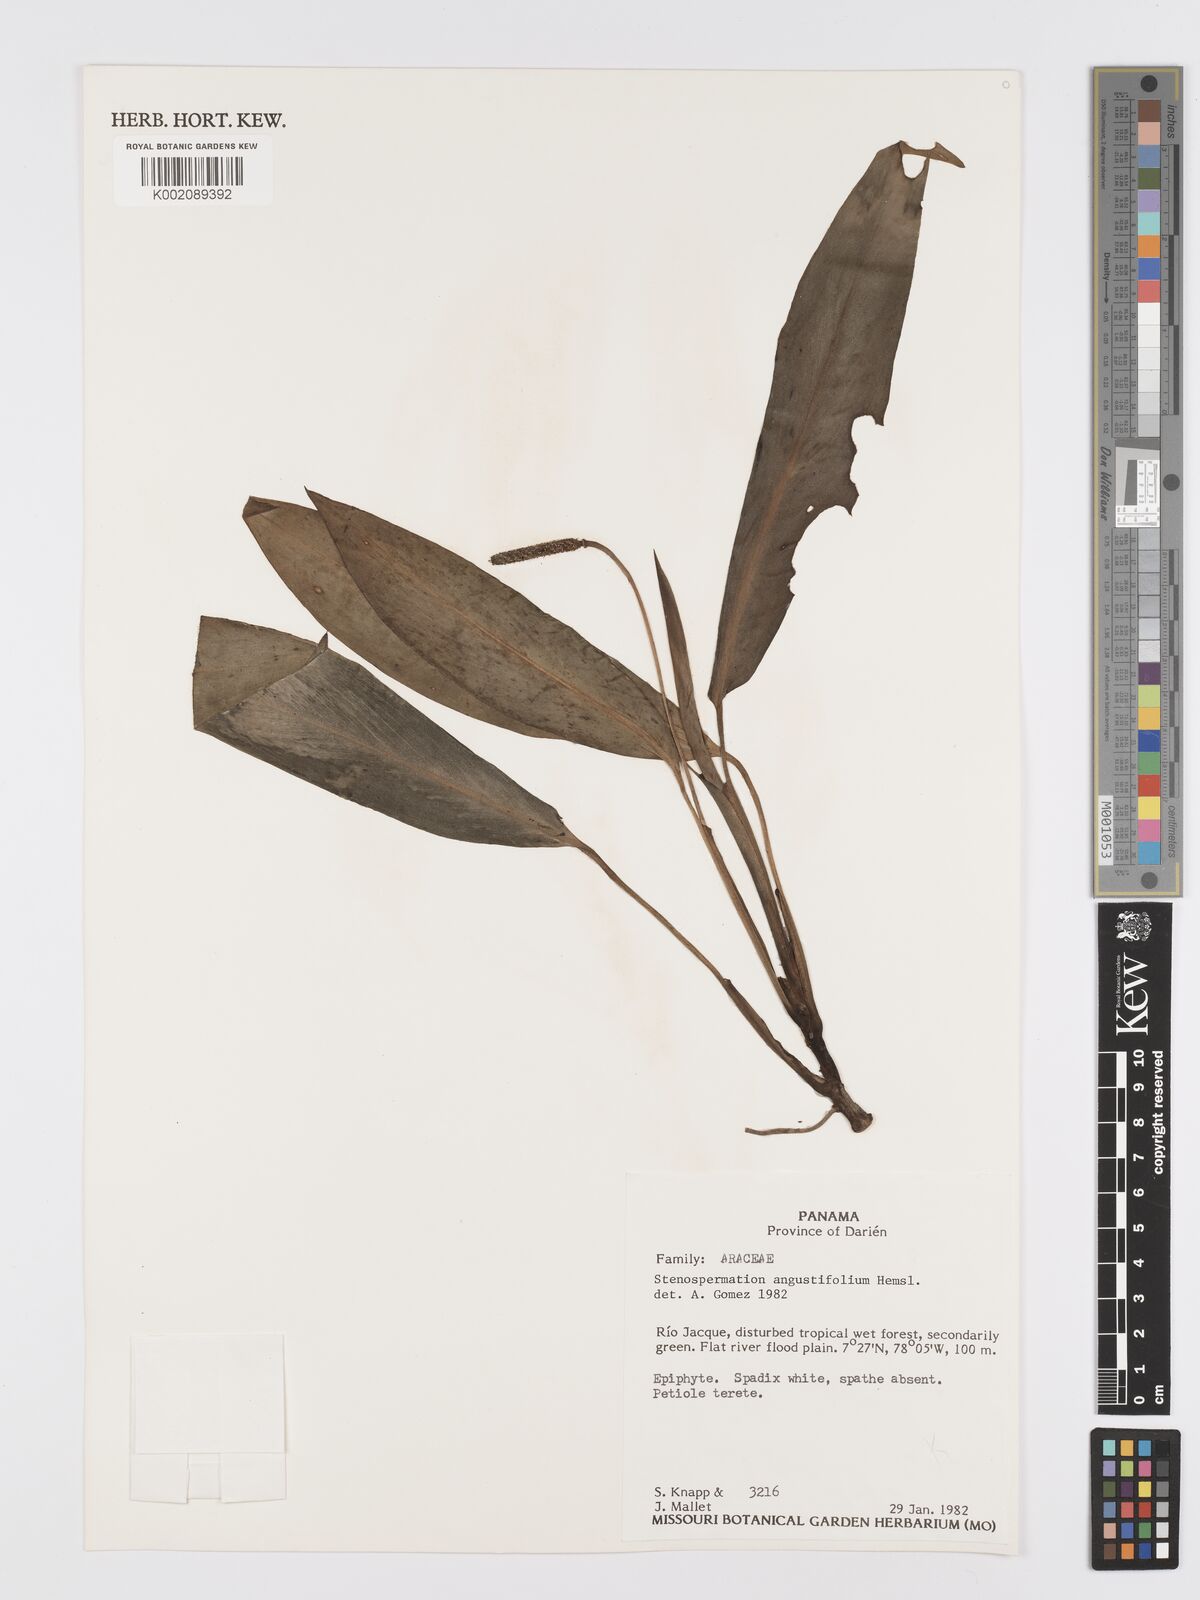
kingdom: Plantae
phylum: Tracheophyta
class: Liliopsida
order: Alismatales
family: Araceae
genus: Stenospermation
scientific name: Stenospermation angustifolium
